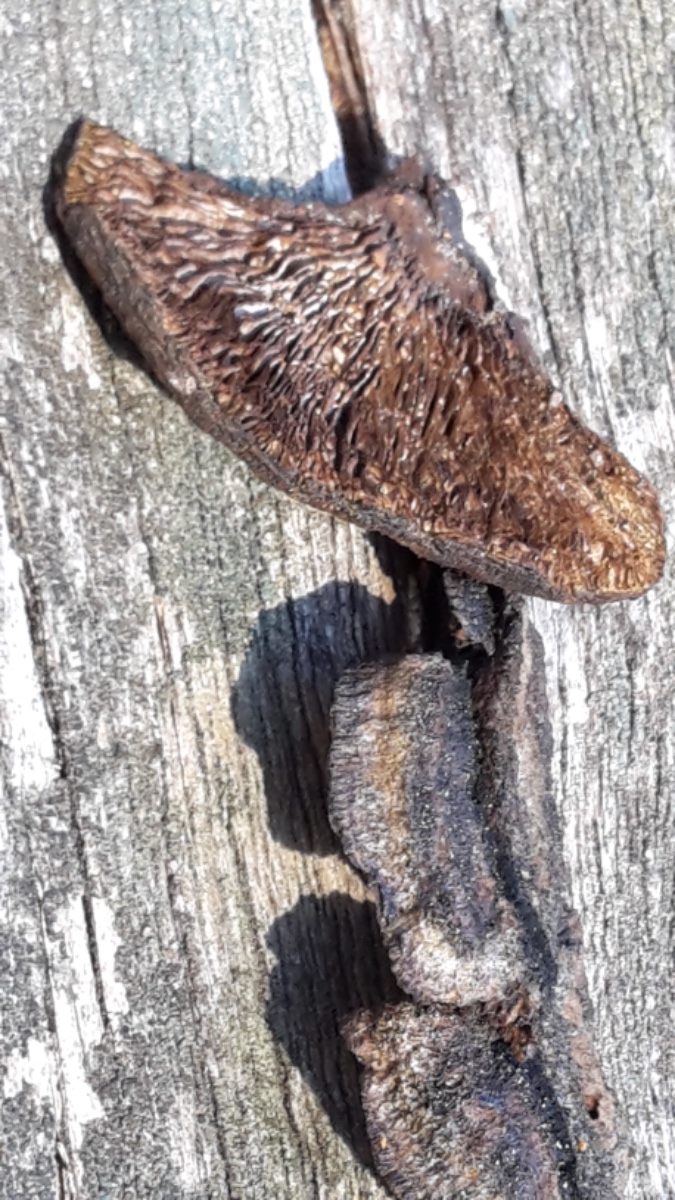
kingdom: Fungi
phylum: Basidiomycota
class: Agaricomycetes
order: Gloeophyllales
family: Gloeophyllaceae
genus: Gloeophyllum
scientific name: Gloeophyllum sepiarium
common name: fyrre-korkhat
